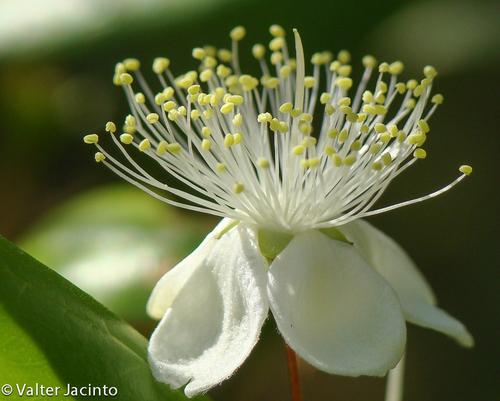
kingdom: Plantae
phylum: Tracheophyta
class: Magnoliopsida
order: Myrtales
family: Myrtaceae
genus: Myrtus
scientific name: Myrtus communis
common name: Myrtle
